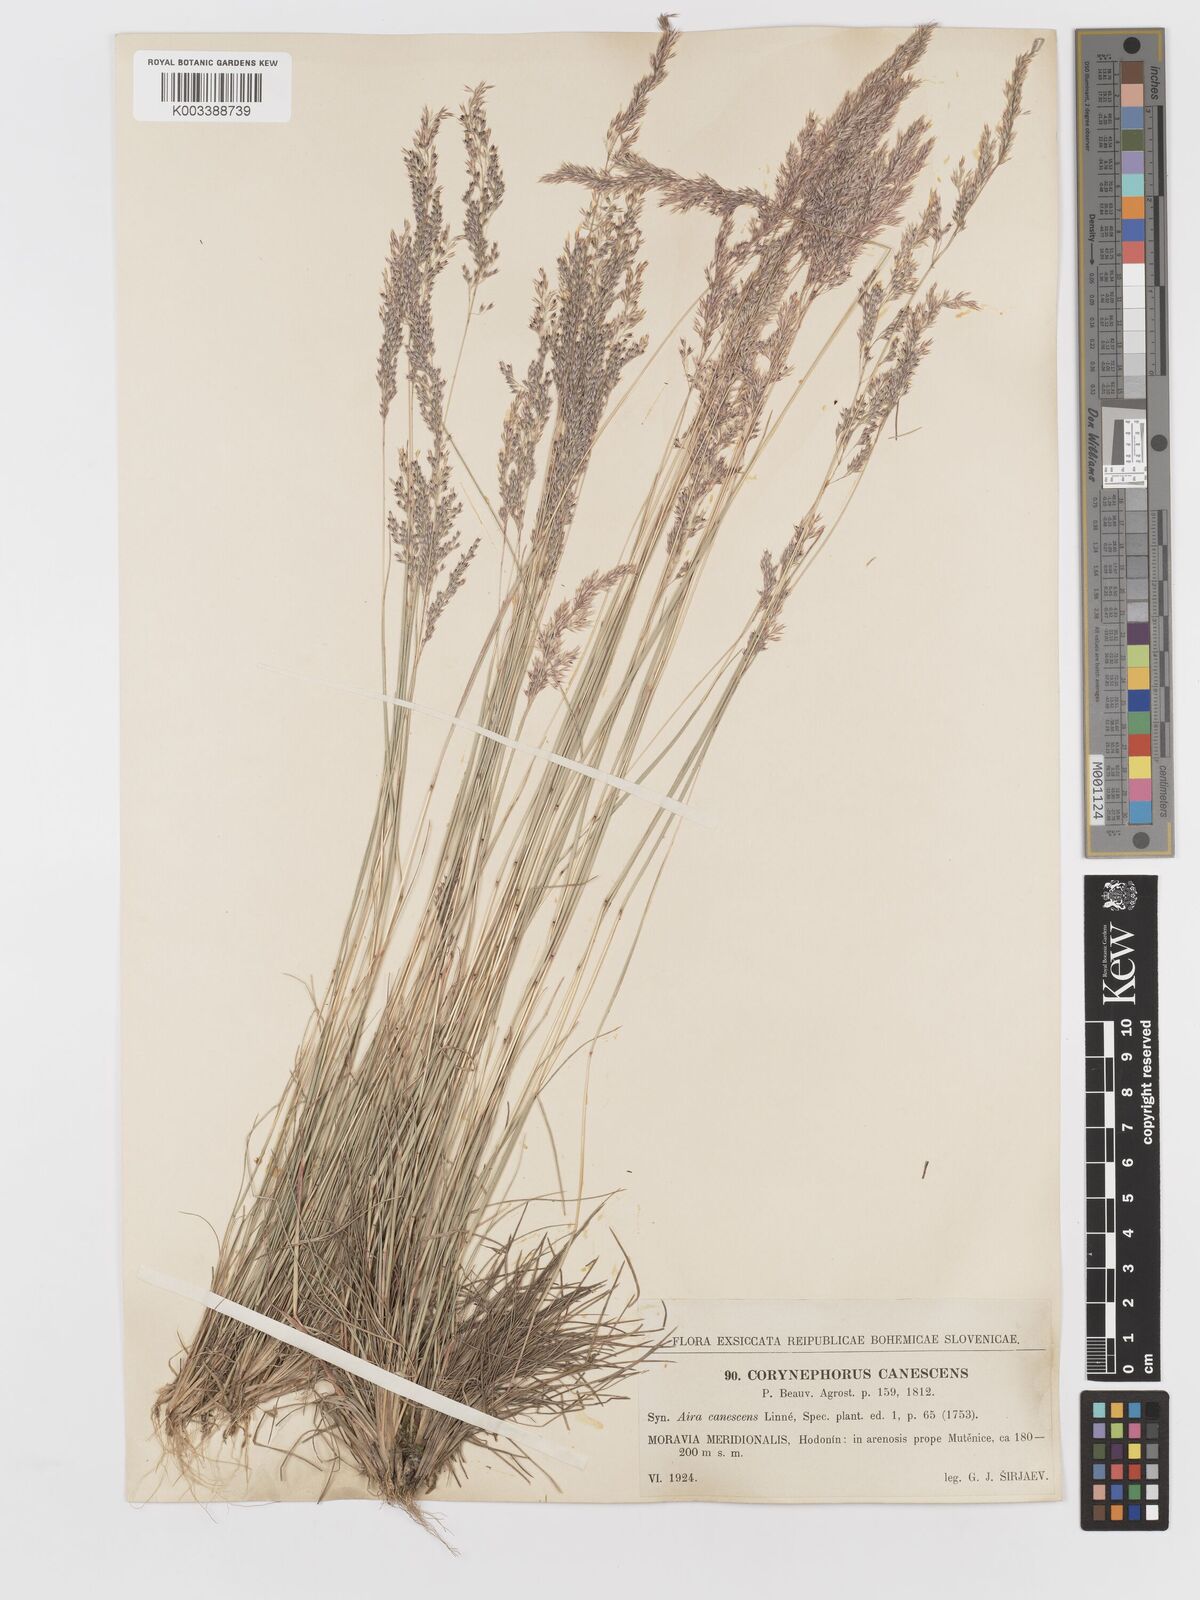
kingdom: Plantae
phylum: Tracheophyta
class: Liliopsida
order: Poales
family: Poaceae
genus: Corynephorus
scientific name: Corynephorus canescens
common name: Grey hair-grass
